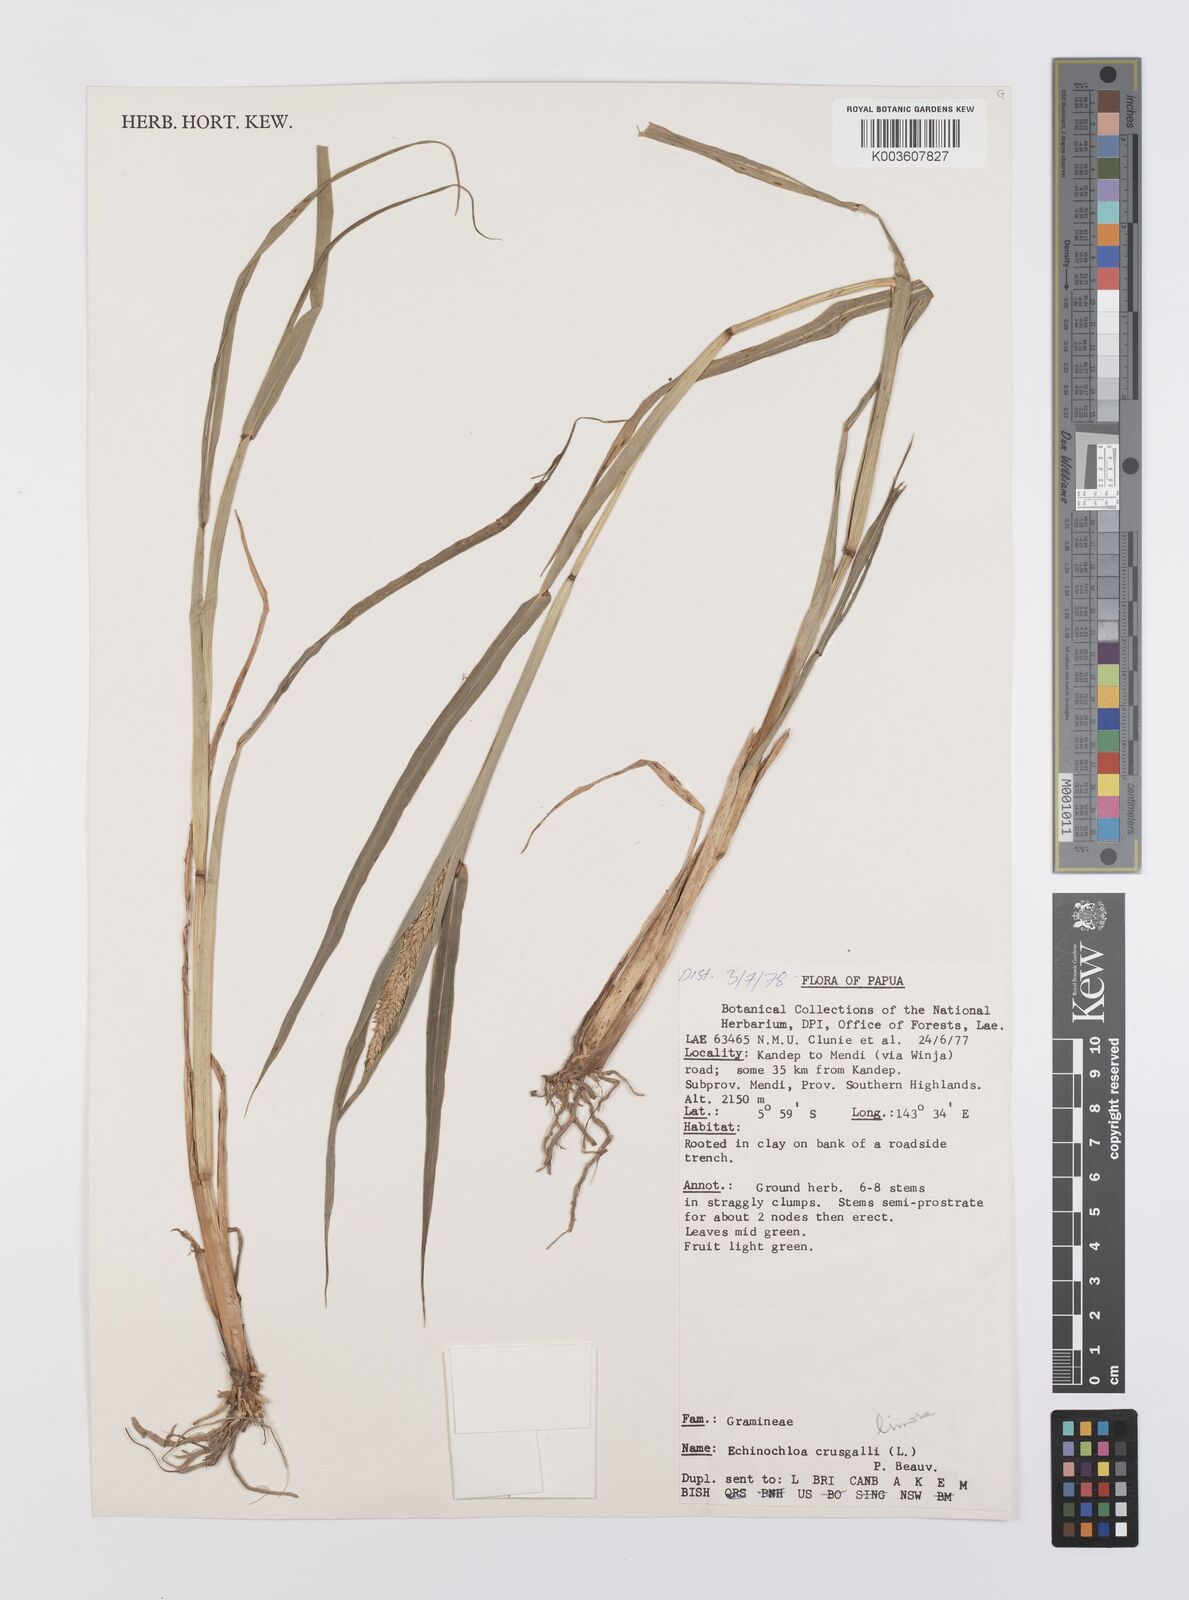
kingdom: Plantae
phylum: Tracheophyta
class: Liliopsida
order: Poales
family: Poaceae
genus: Echinochloa
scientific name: Echinochloa crus-galli
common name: Cockspur
